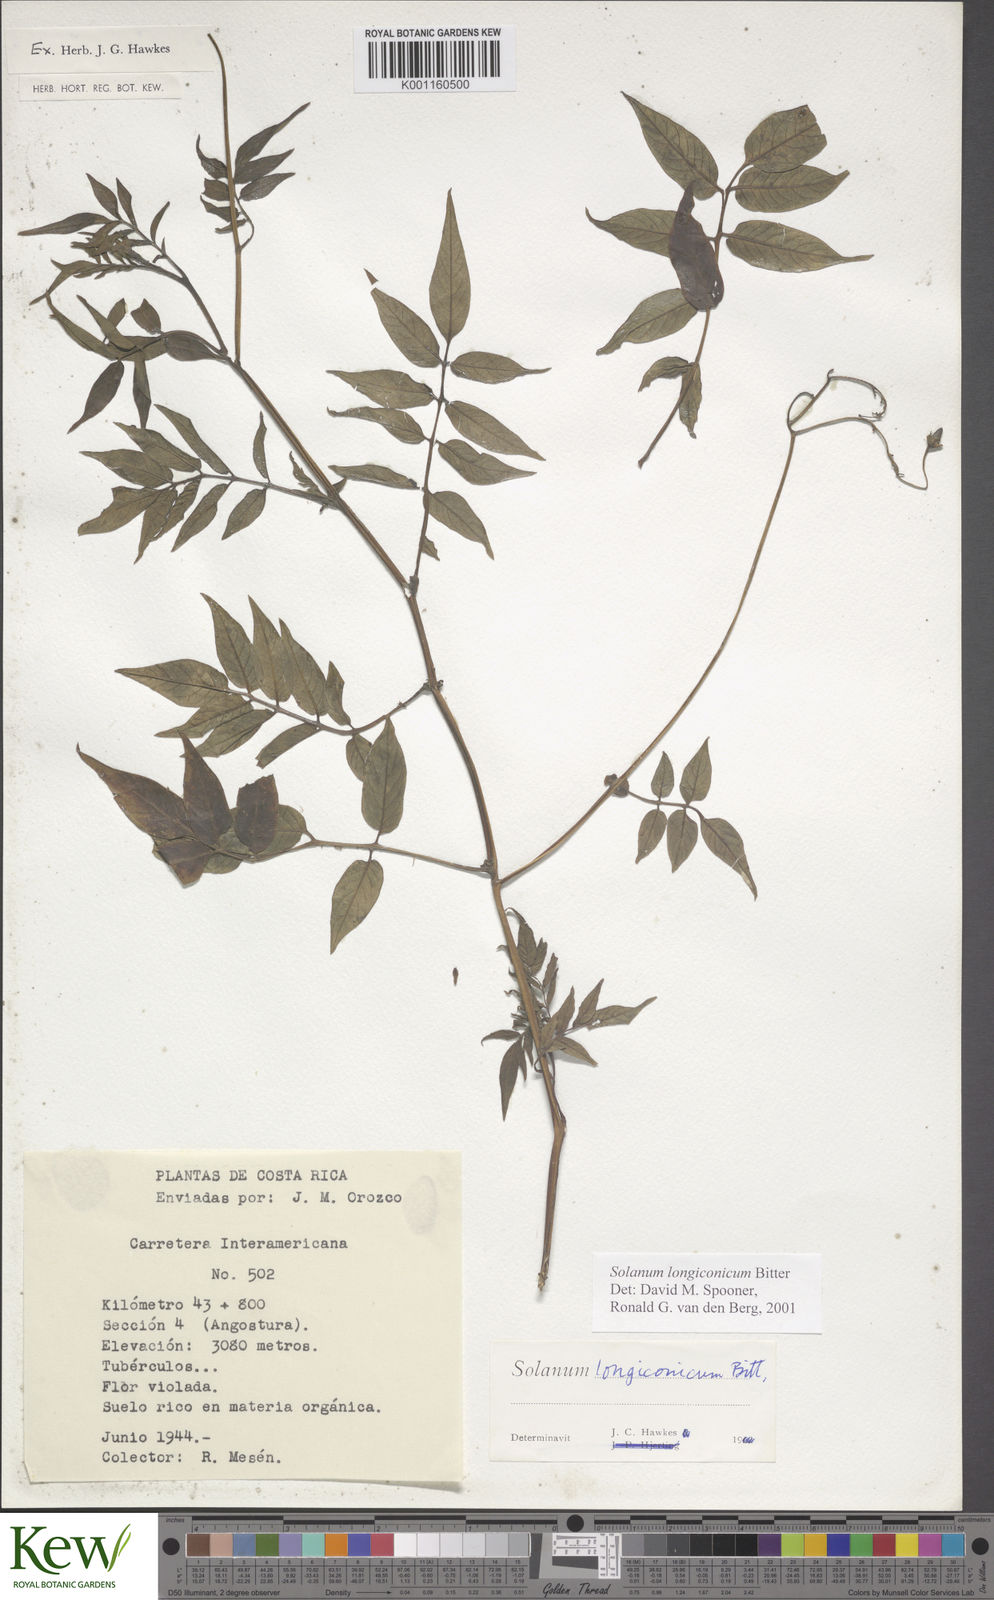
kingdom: Plantae
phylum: Tracheophyta
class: Magnoliopsida
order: Solanales
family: Solanaceae
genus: Solanum
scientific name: Solanum longiconicum
